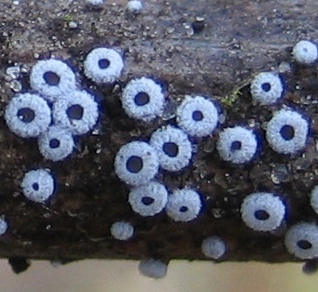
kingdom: Fungi
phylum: Basidiomycota
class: Agaricomycetes
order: Agaricales
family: Niaceae
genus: Lachnella
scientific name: Lachnella alboviolascens
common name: grå frynserede
